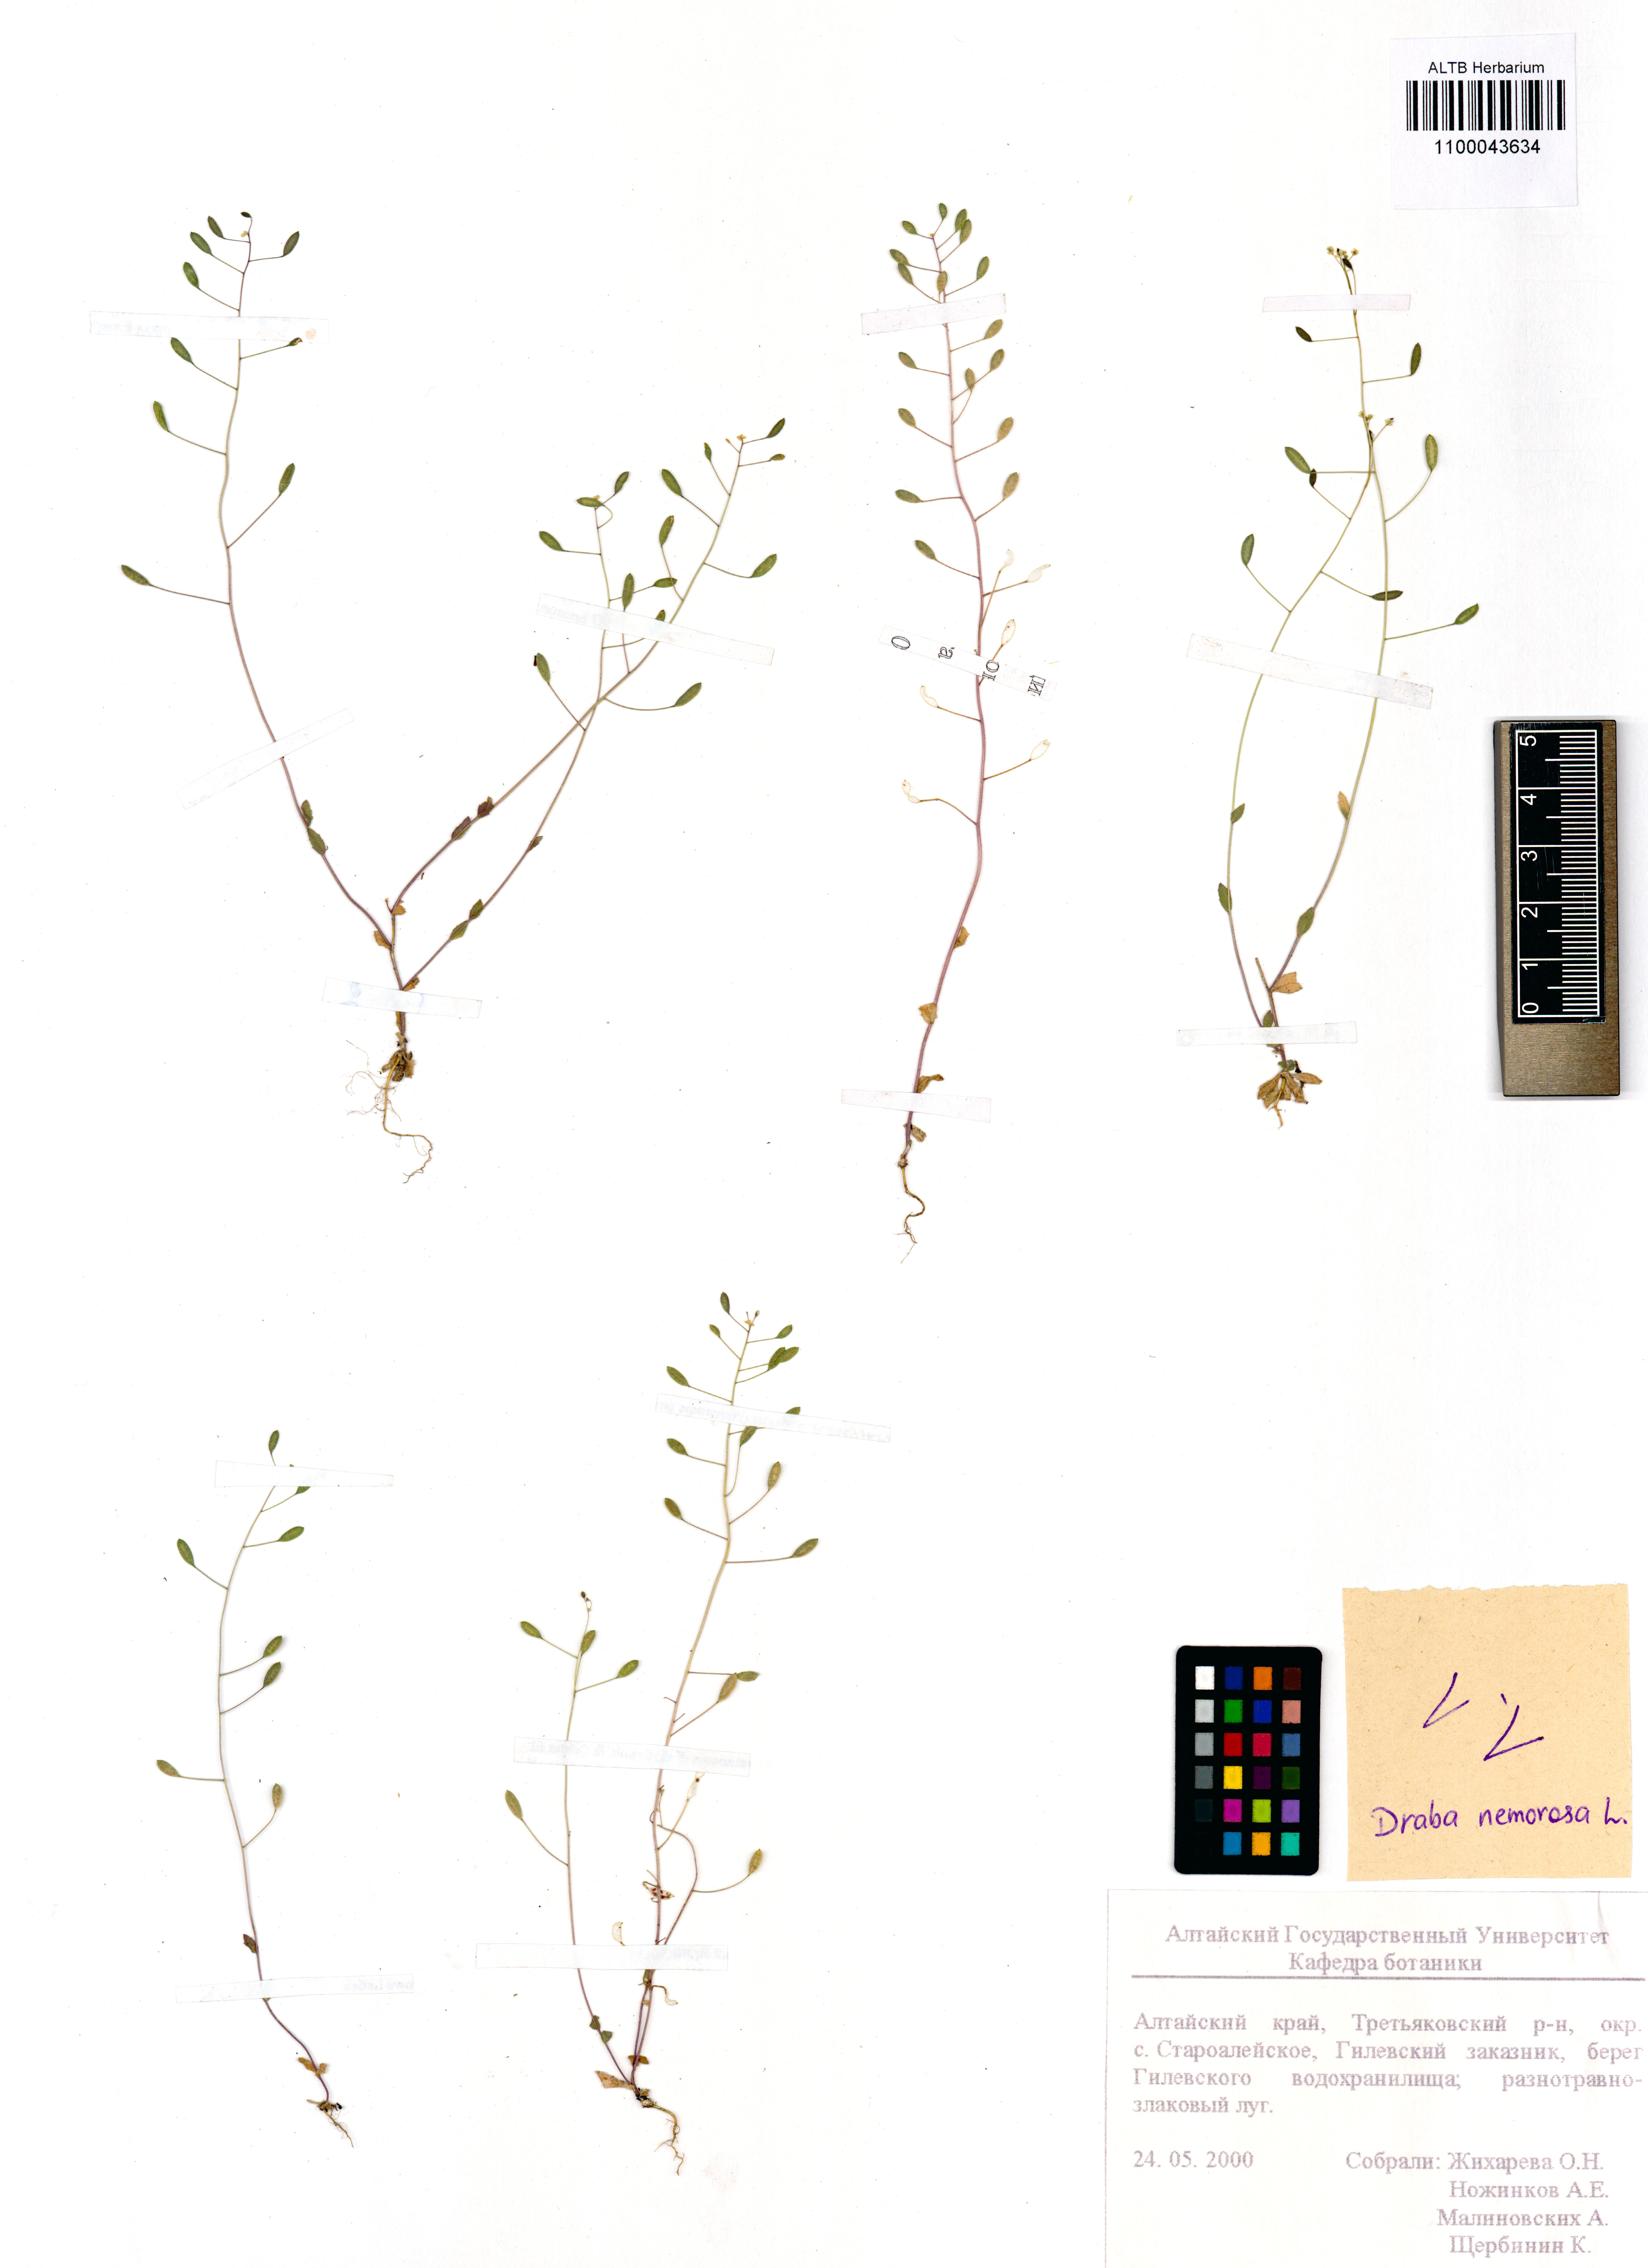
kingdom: Plantae
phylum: Tracheophyta
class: Magnoliopsida
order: Brassicales
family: Brassicaceae
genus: Draba
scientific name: Draba nemorosa
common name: Wood whitlow-grass
